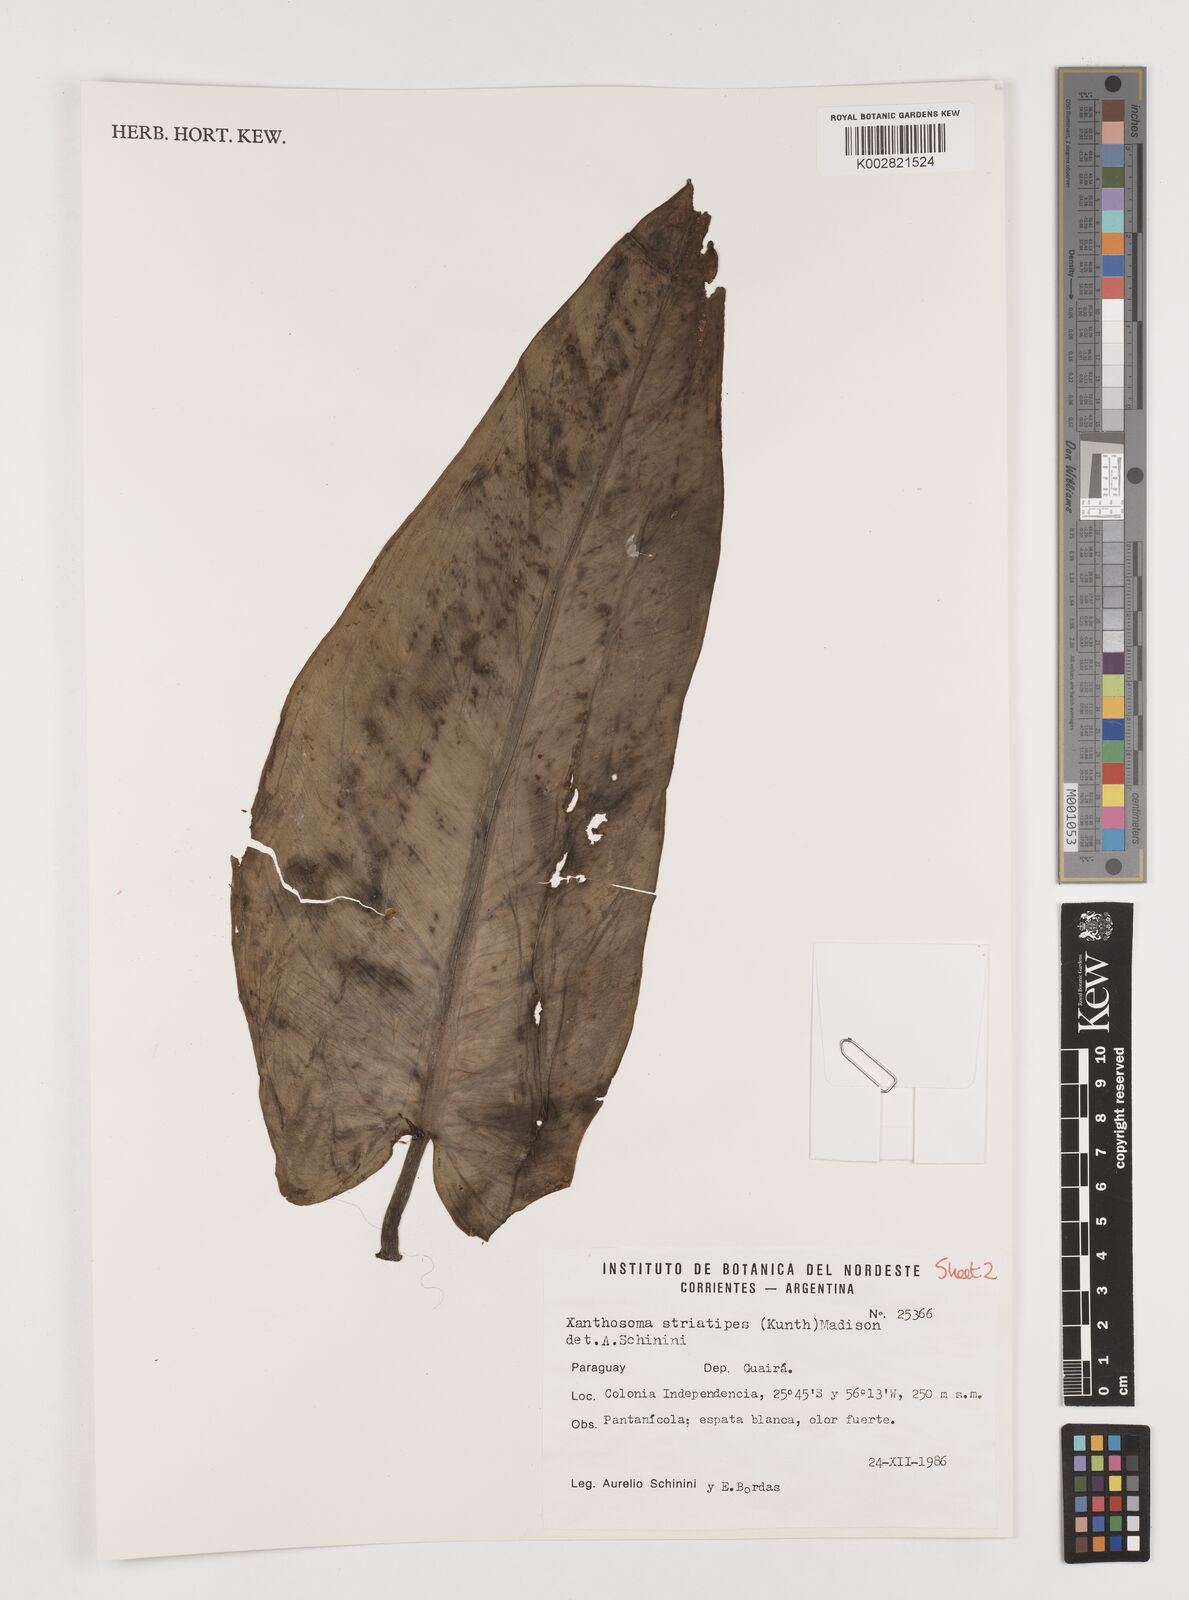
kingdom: Plantae
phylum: Tracheophyta
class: Liliopsida
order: Alismatales
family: Araceae
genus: Xanthosoma
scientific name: Xanthosoma striatipes
